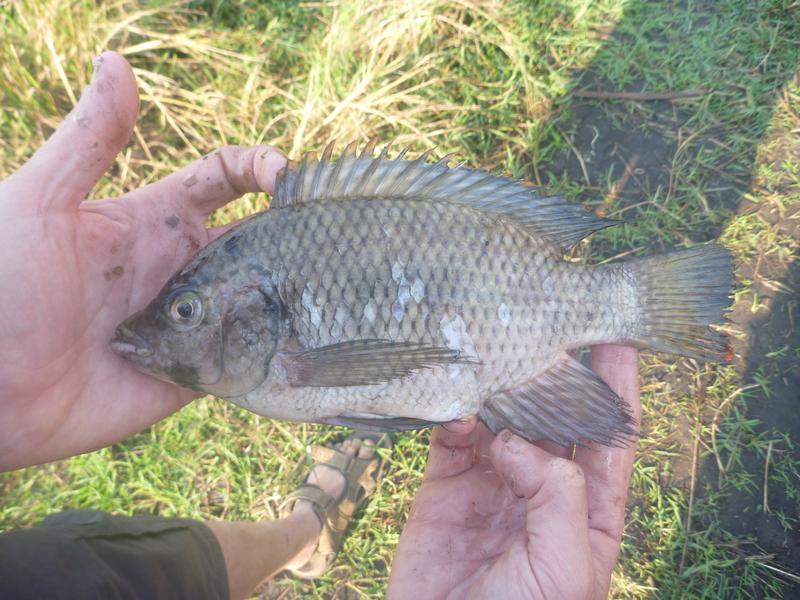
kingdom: Animalia
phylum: Chordata
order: Perciformes
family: Cichlidae
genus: Oreochromis
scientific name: Oreochromis karomo
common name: Karomo
